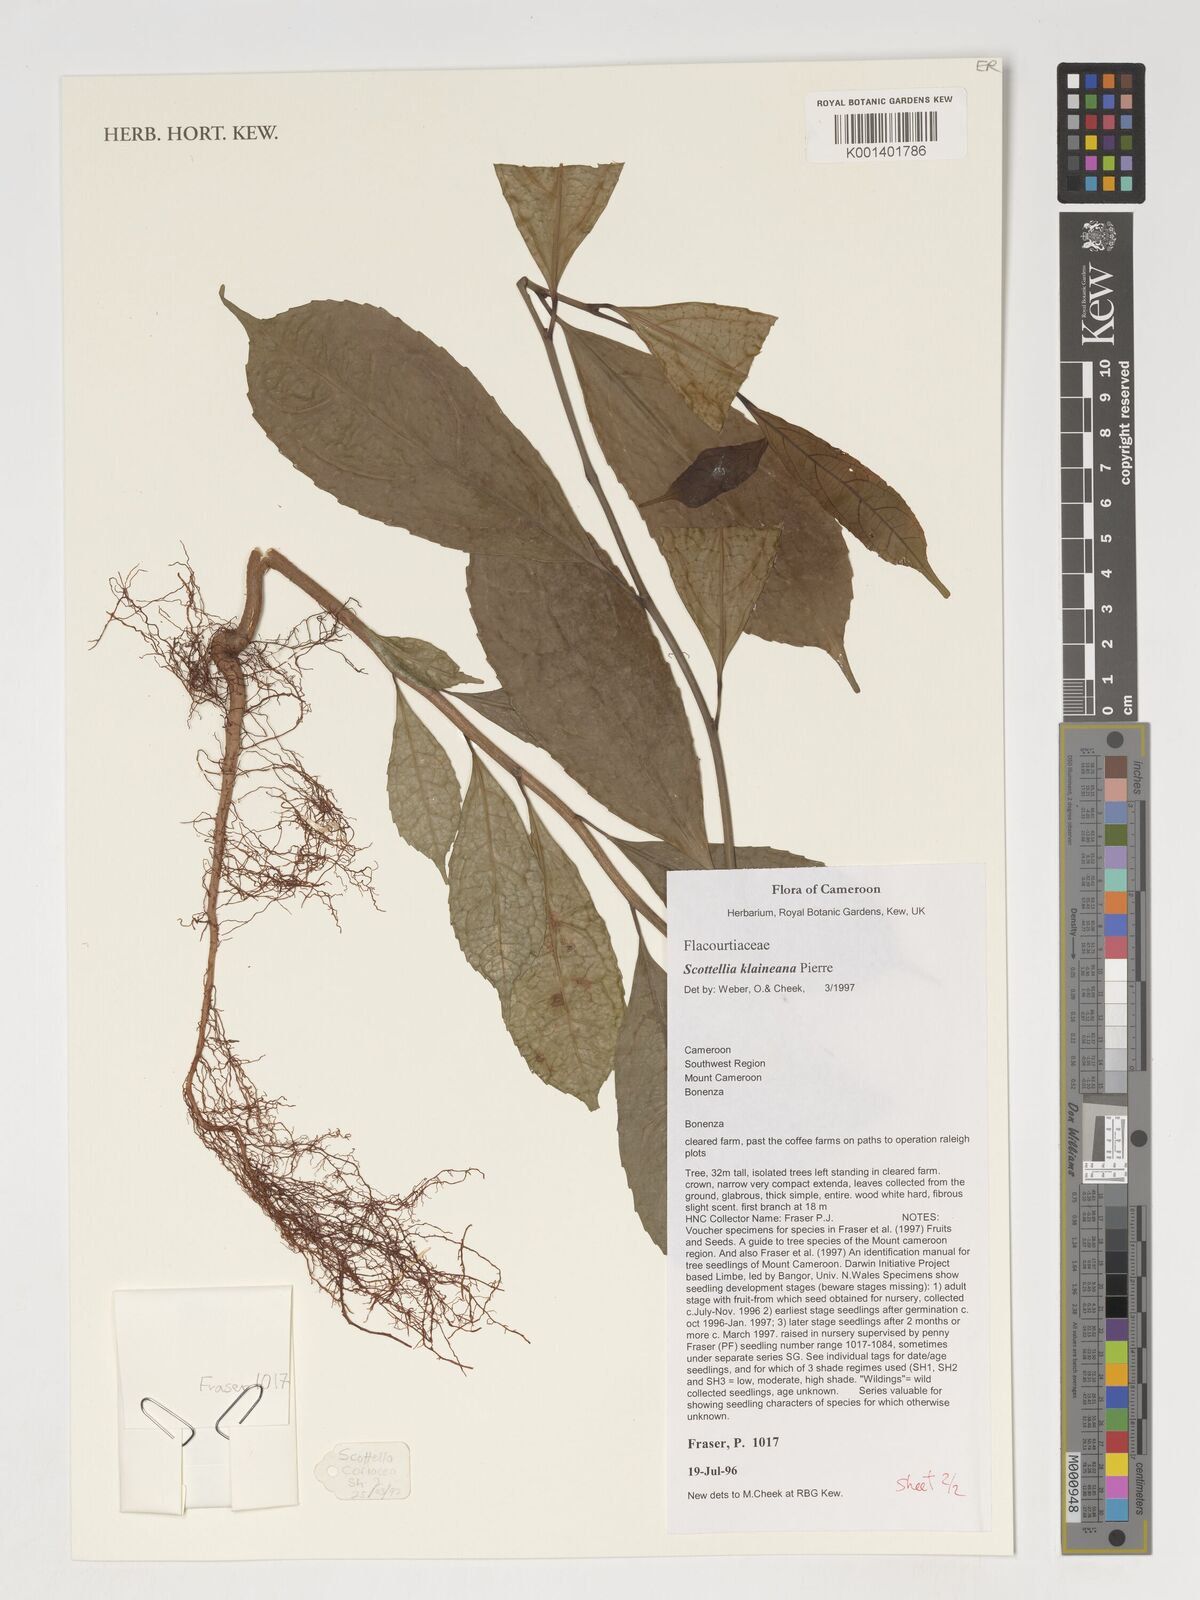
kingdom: Plantae
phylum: Tracheophyta
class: Magnoliopsida
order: Malpighiales
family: Achariaceae
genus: Scottellia
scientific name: Scottellia klaineana
